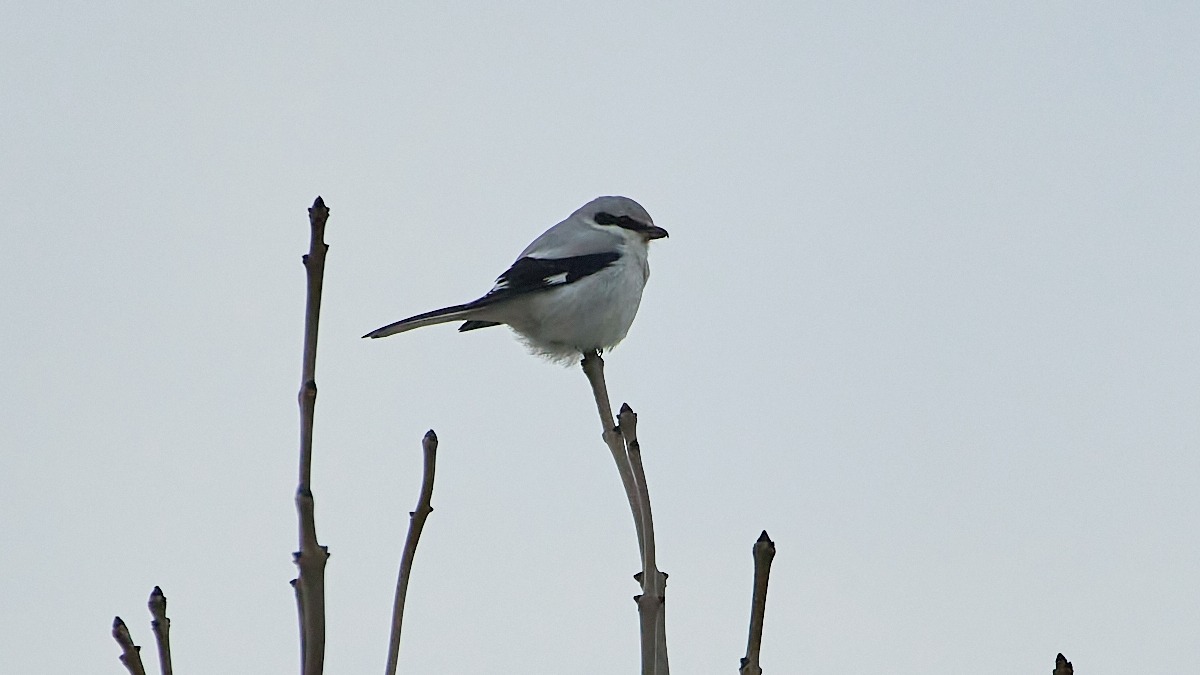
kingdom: Animalia
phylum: Chordata
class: Aves
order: Passeriformes
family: Laniidae
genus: Lanius
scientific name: Lanius excubitor
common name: Stor tornskade
